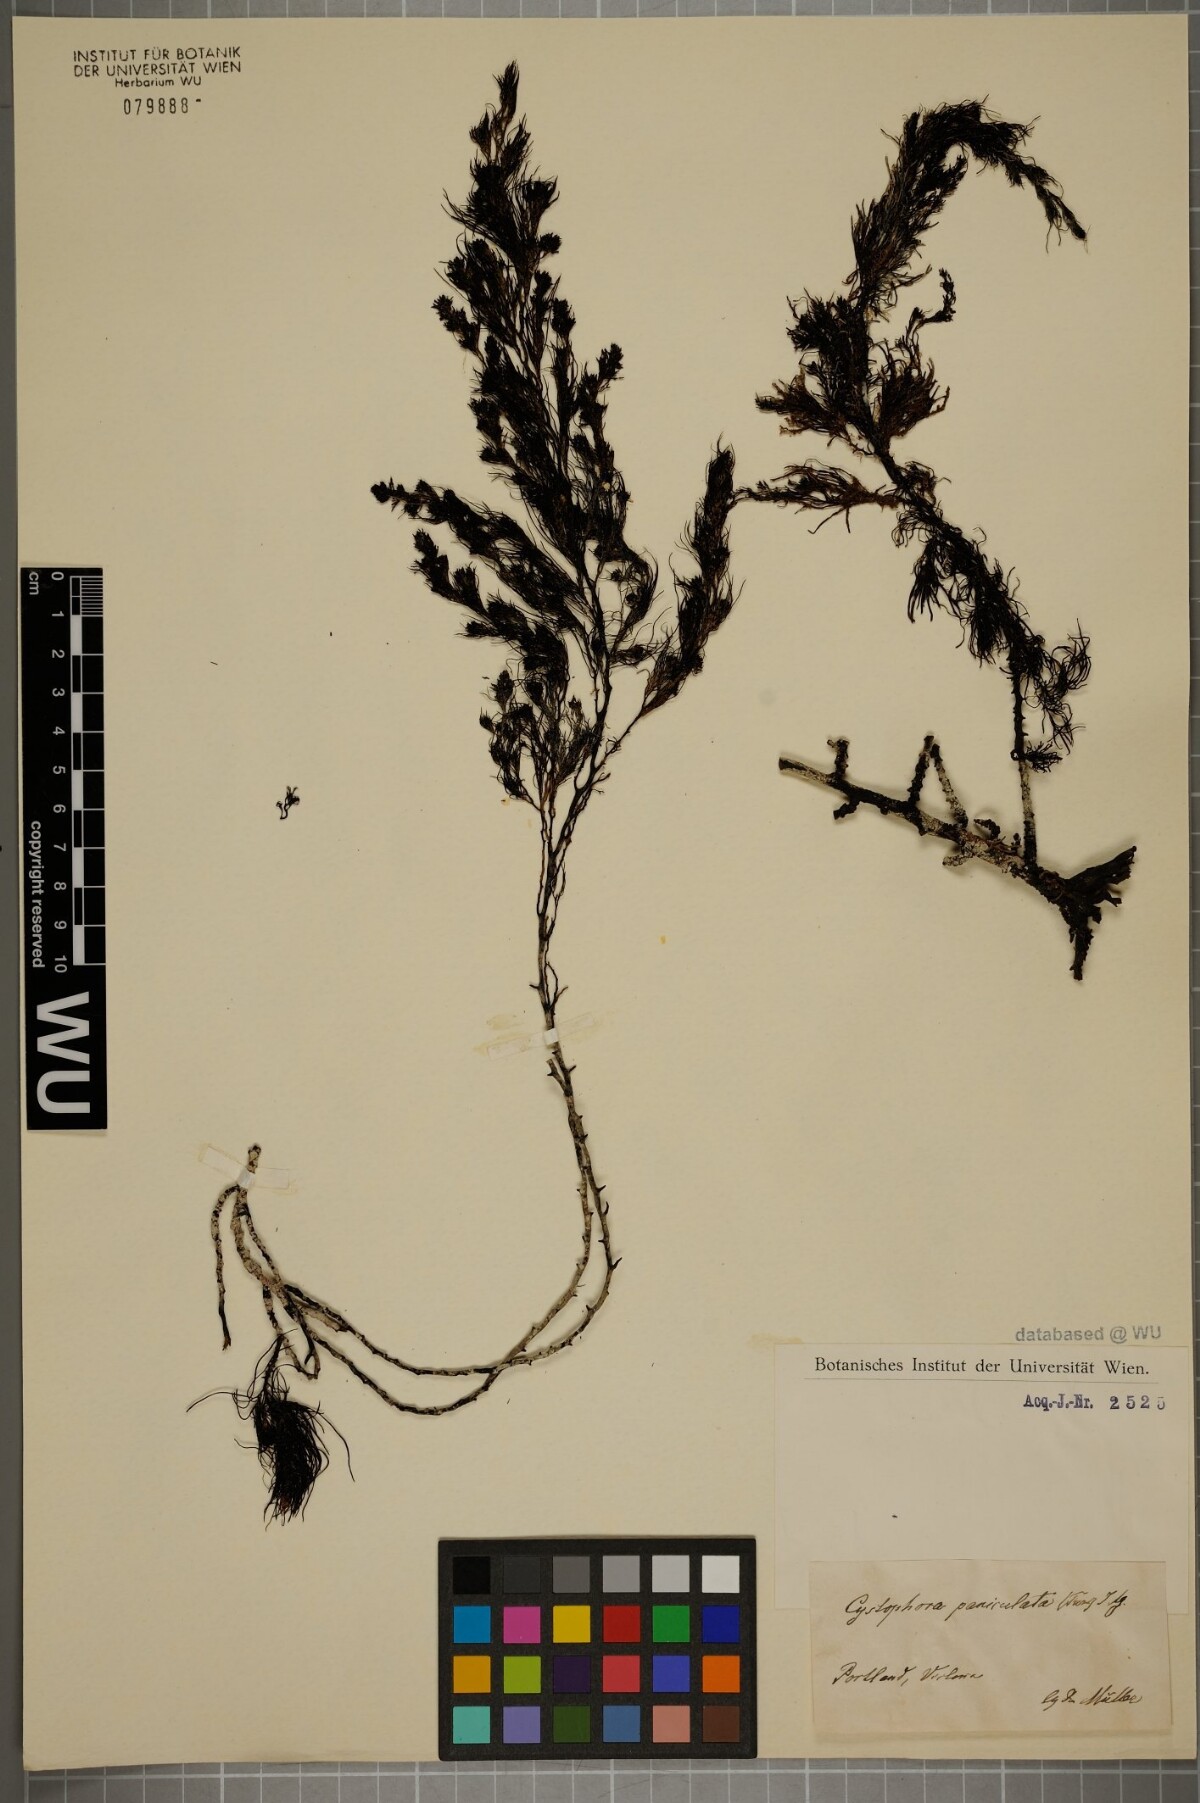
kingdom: Chromista
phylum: Ochrophyta
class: Phaeophyceae
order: Fucales
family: Sargassaceae
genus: Acrocarpia
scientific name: Acrocarpia paniculata
